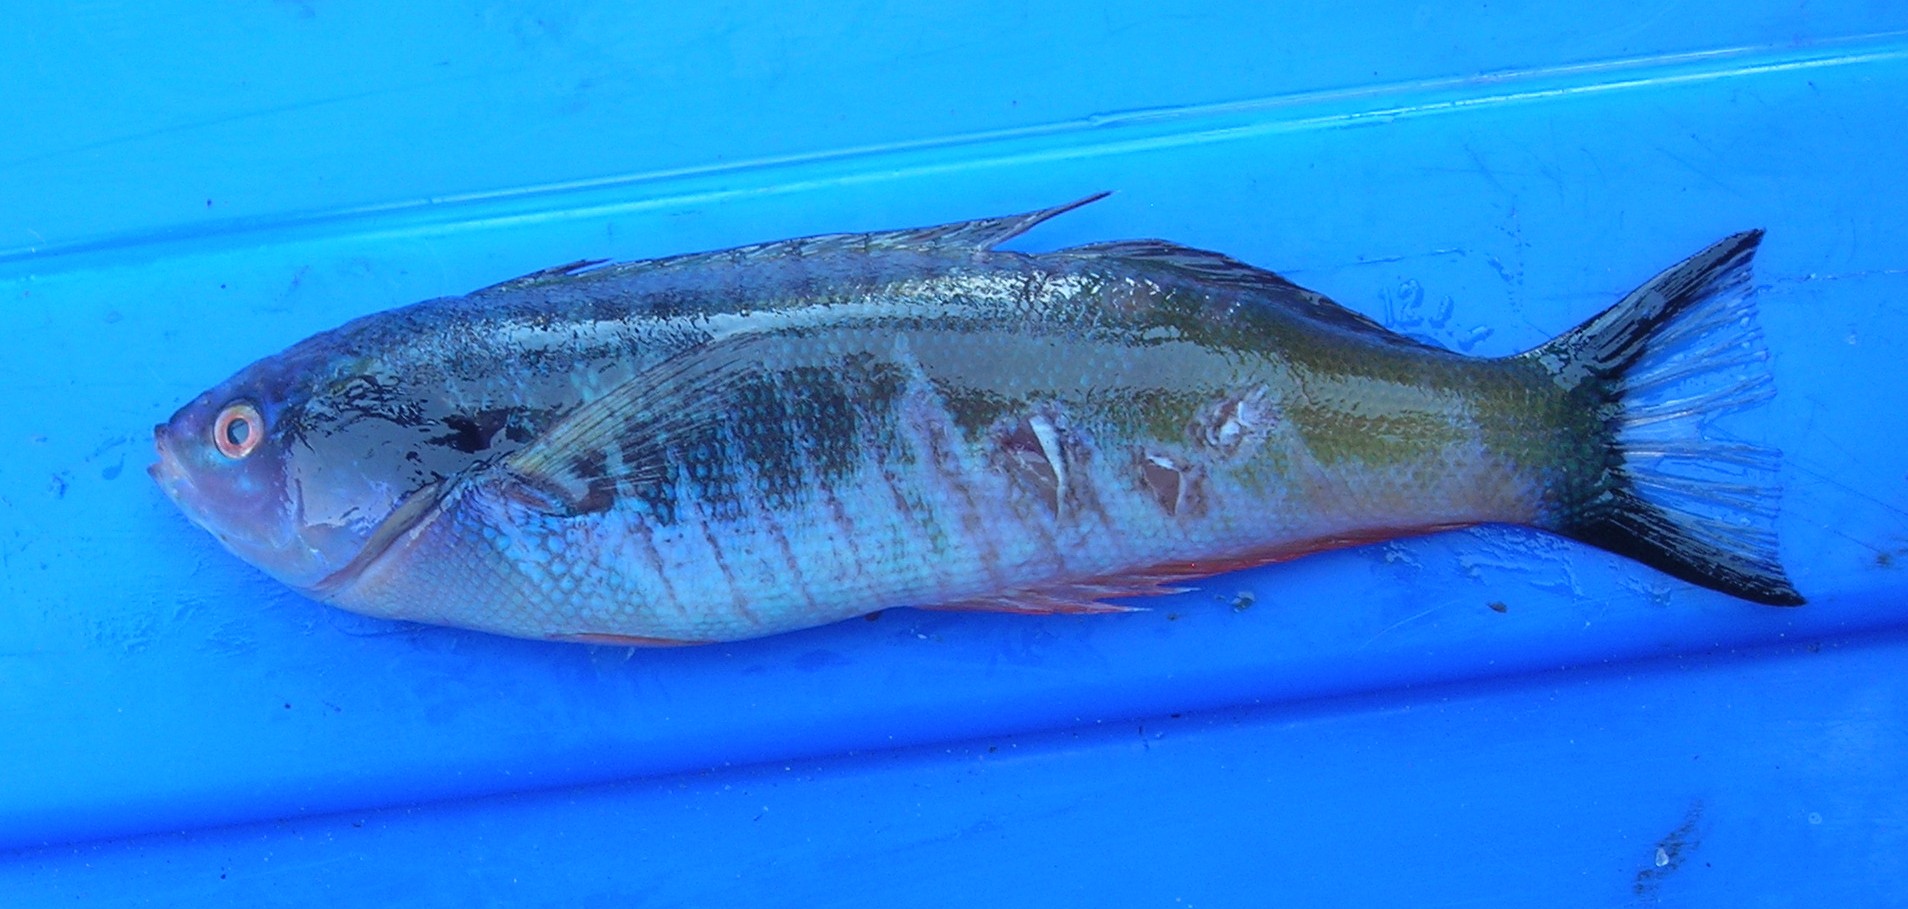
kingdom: Animalia
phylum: Chordata
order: Perciformes
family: Labridae
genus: Pseudocoris
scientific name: Pseudocoris occidentalis
